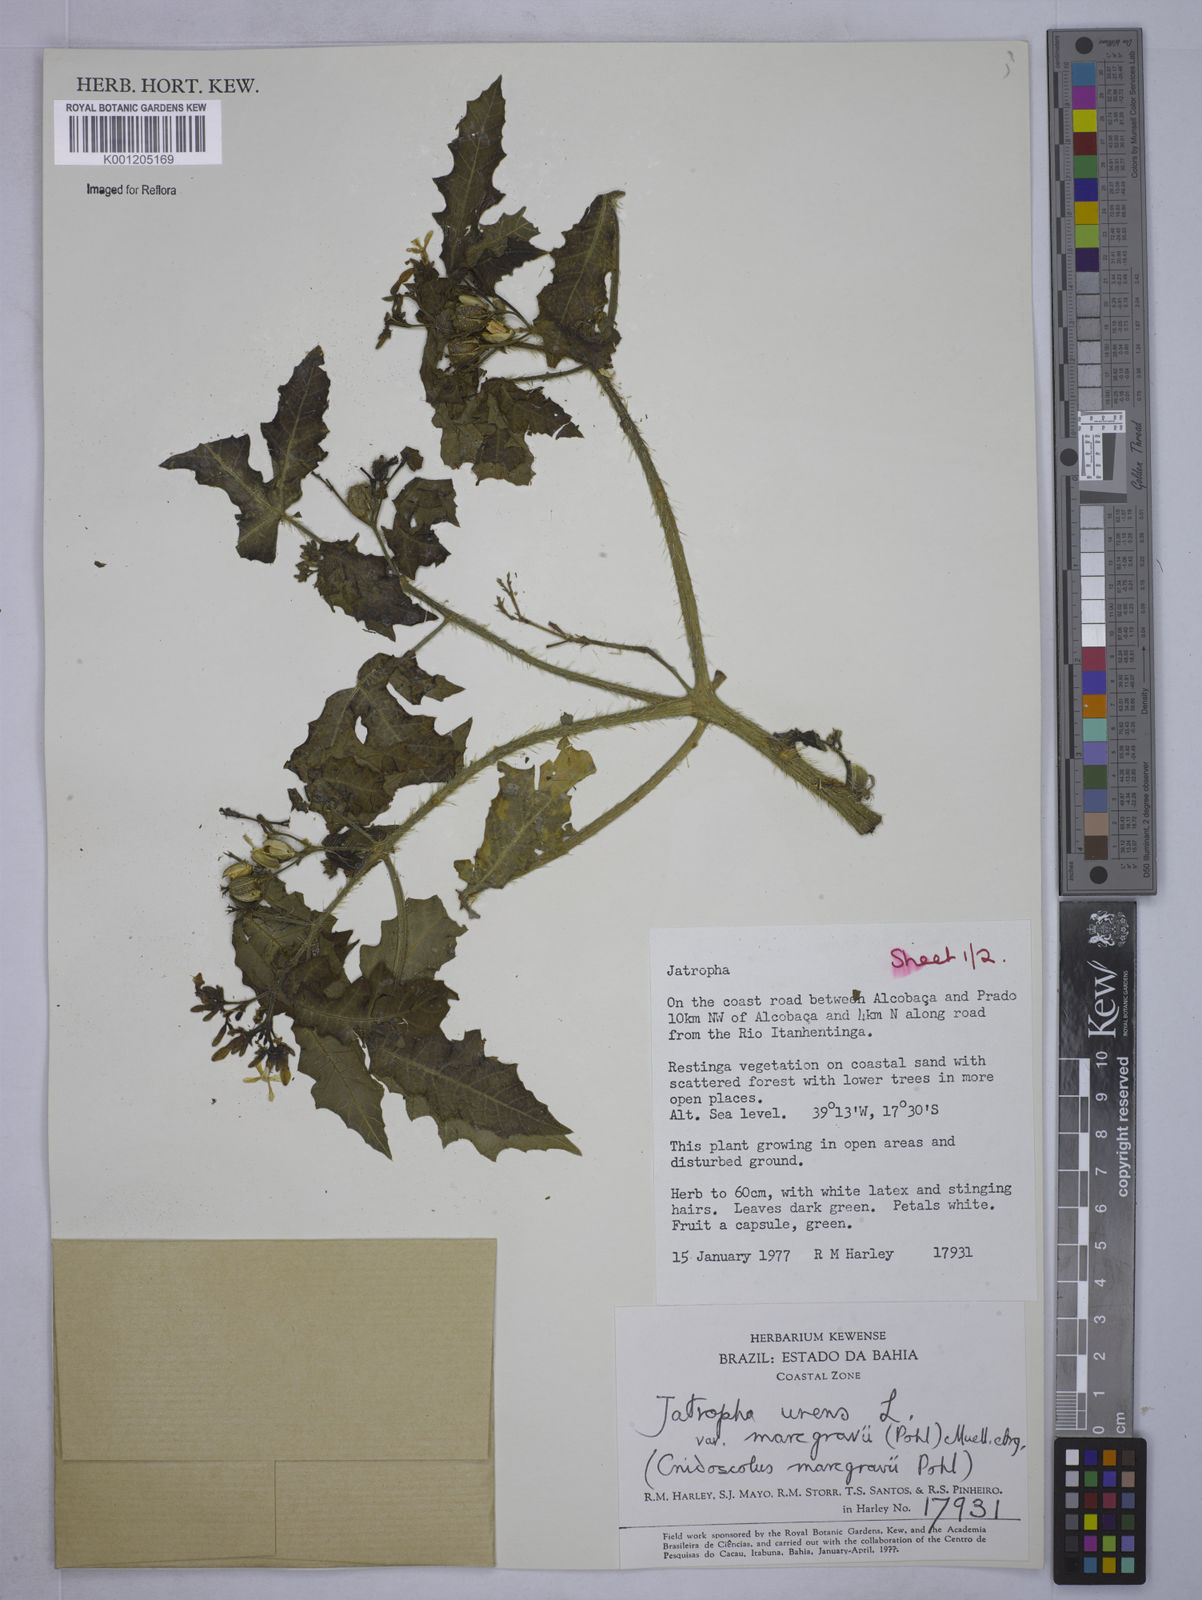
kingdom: Plantae
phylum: Tracheophyta
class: Magnoliopsida
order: Malpighiales
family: Euphorbiaceae
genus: Cnidoscolus
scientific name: Cnidoscolus urens
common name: Bull-nettle
